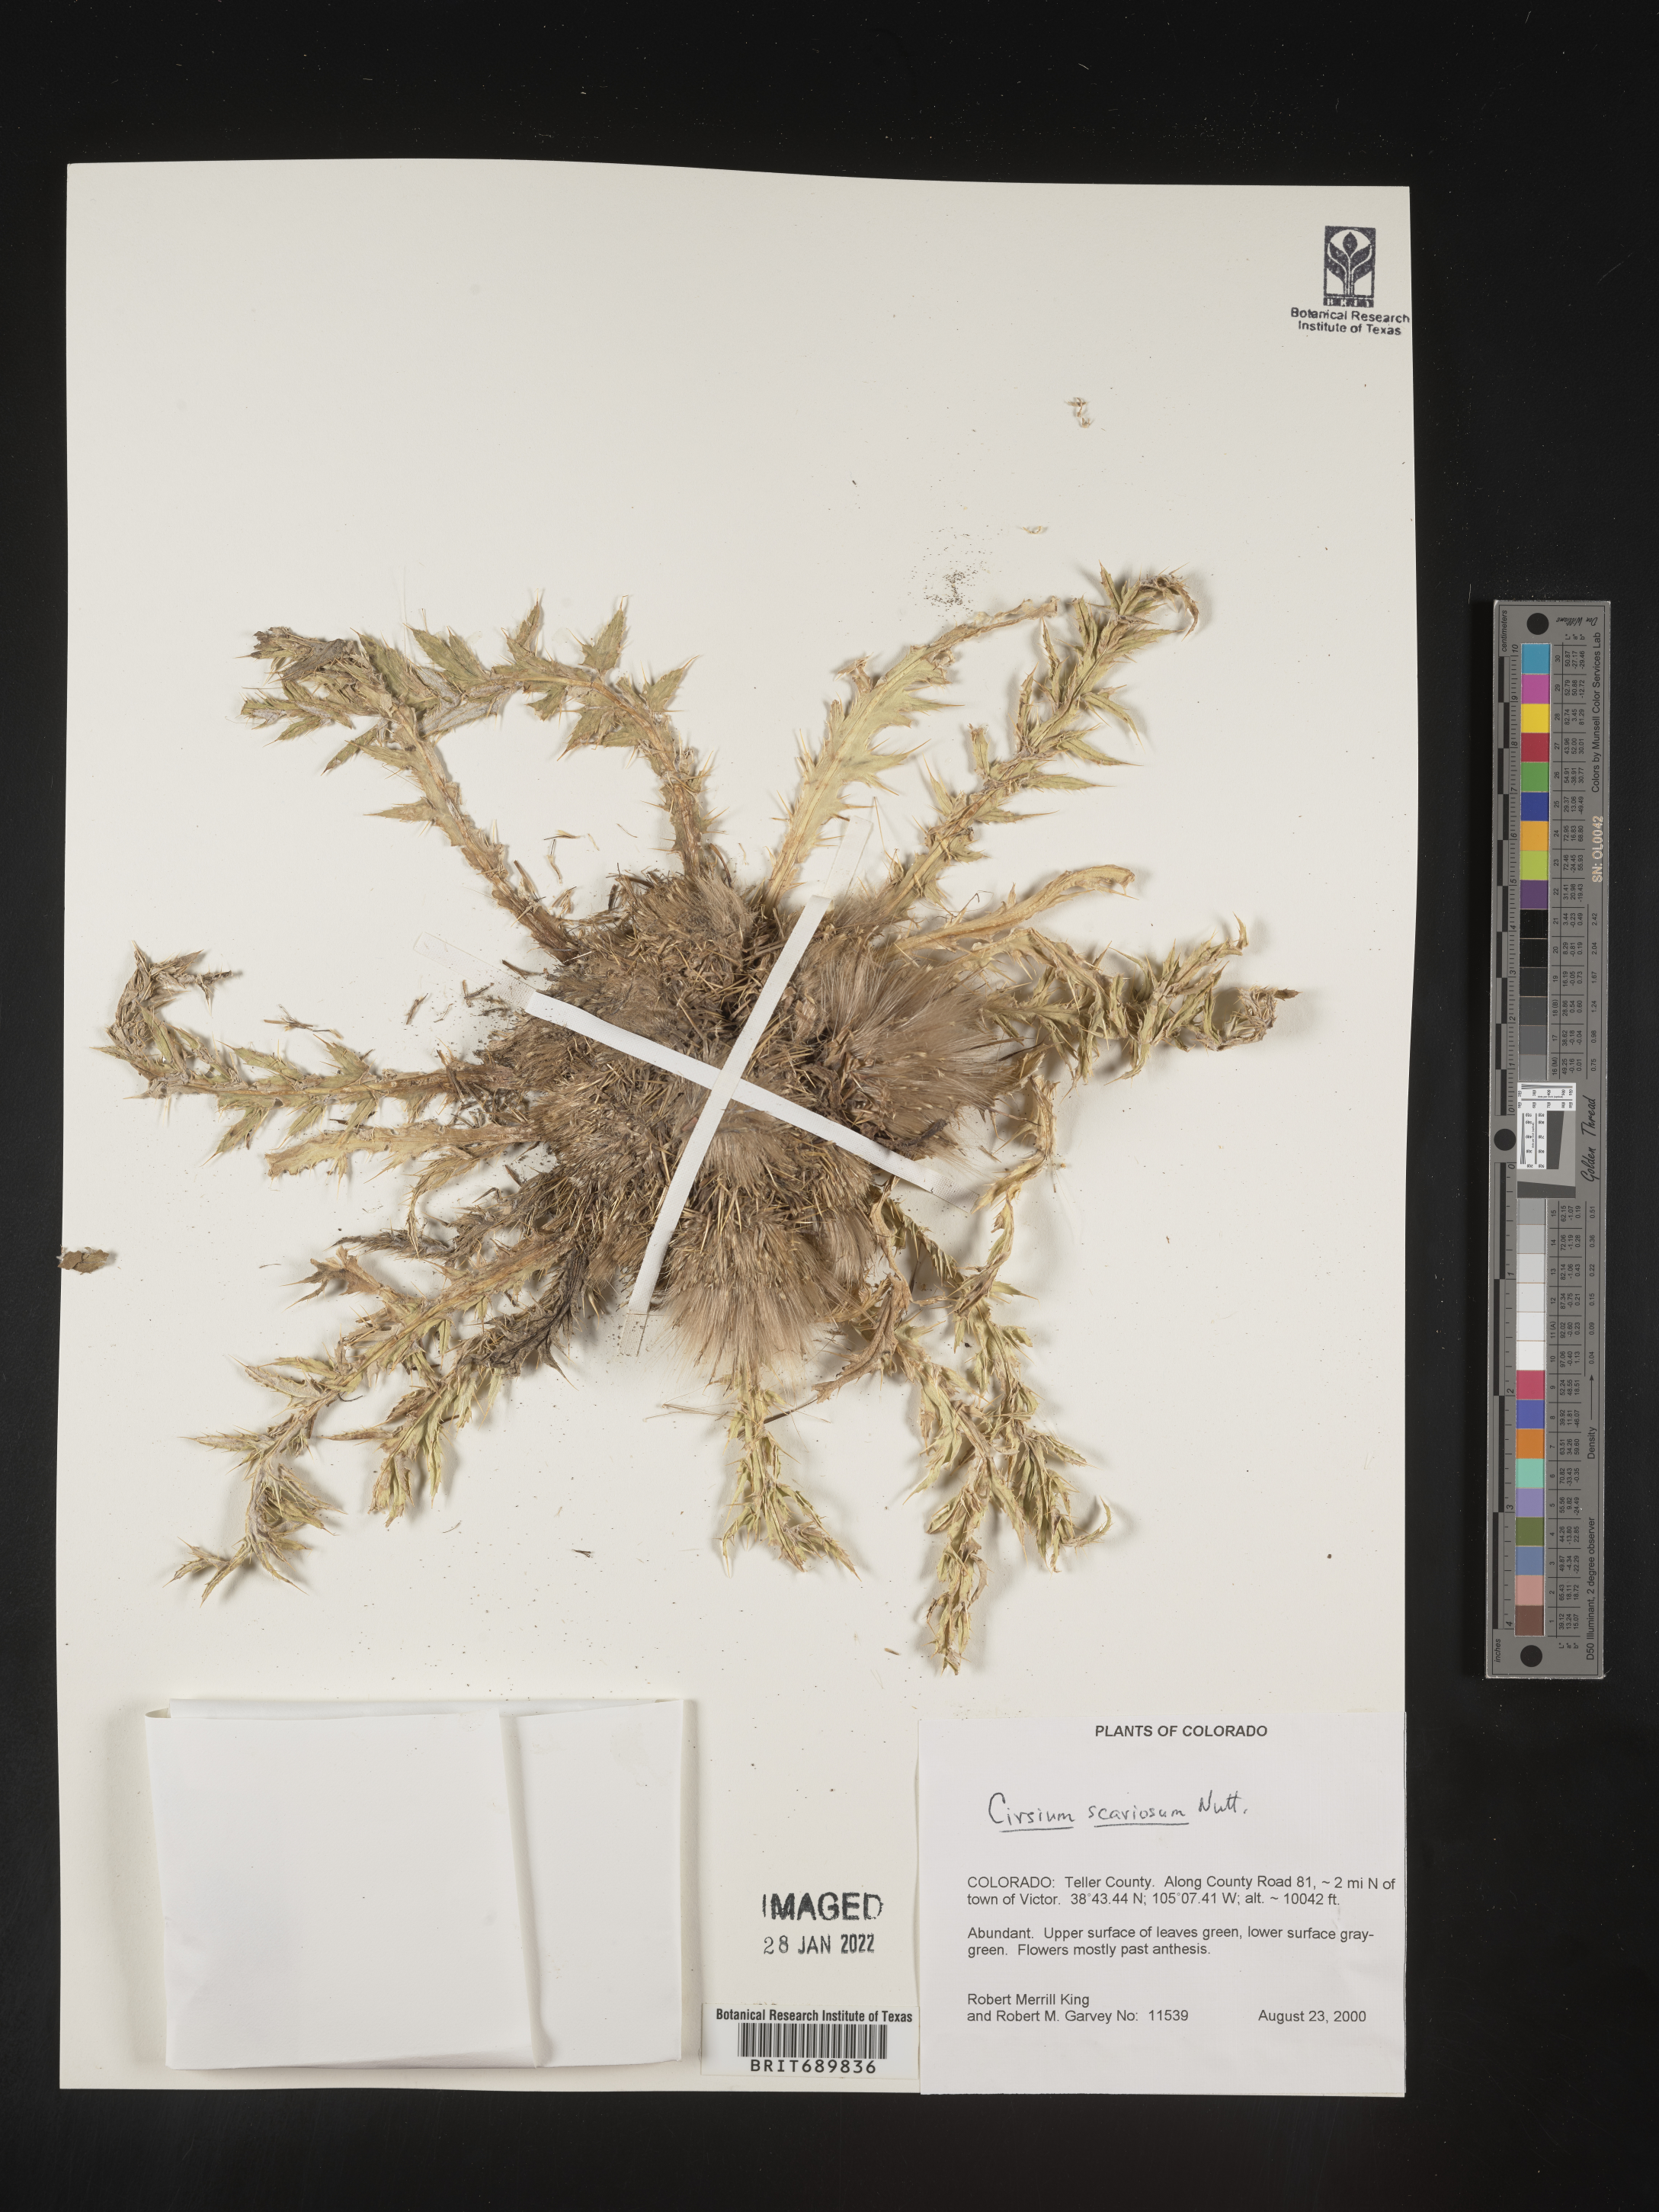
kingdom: Plantae
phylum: Tracheophyta
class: Magnoliopsida
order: Asterales
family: Asteraceae
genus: Cirsium
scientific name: Cirsium scariosum
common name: Meadow thistle
